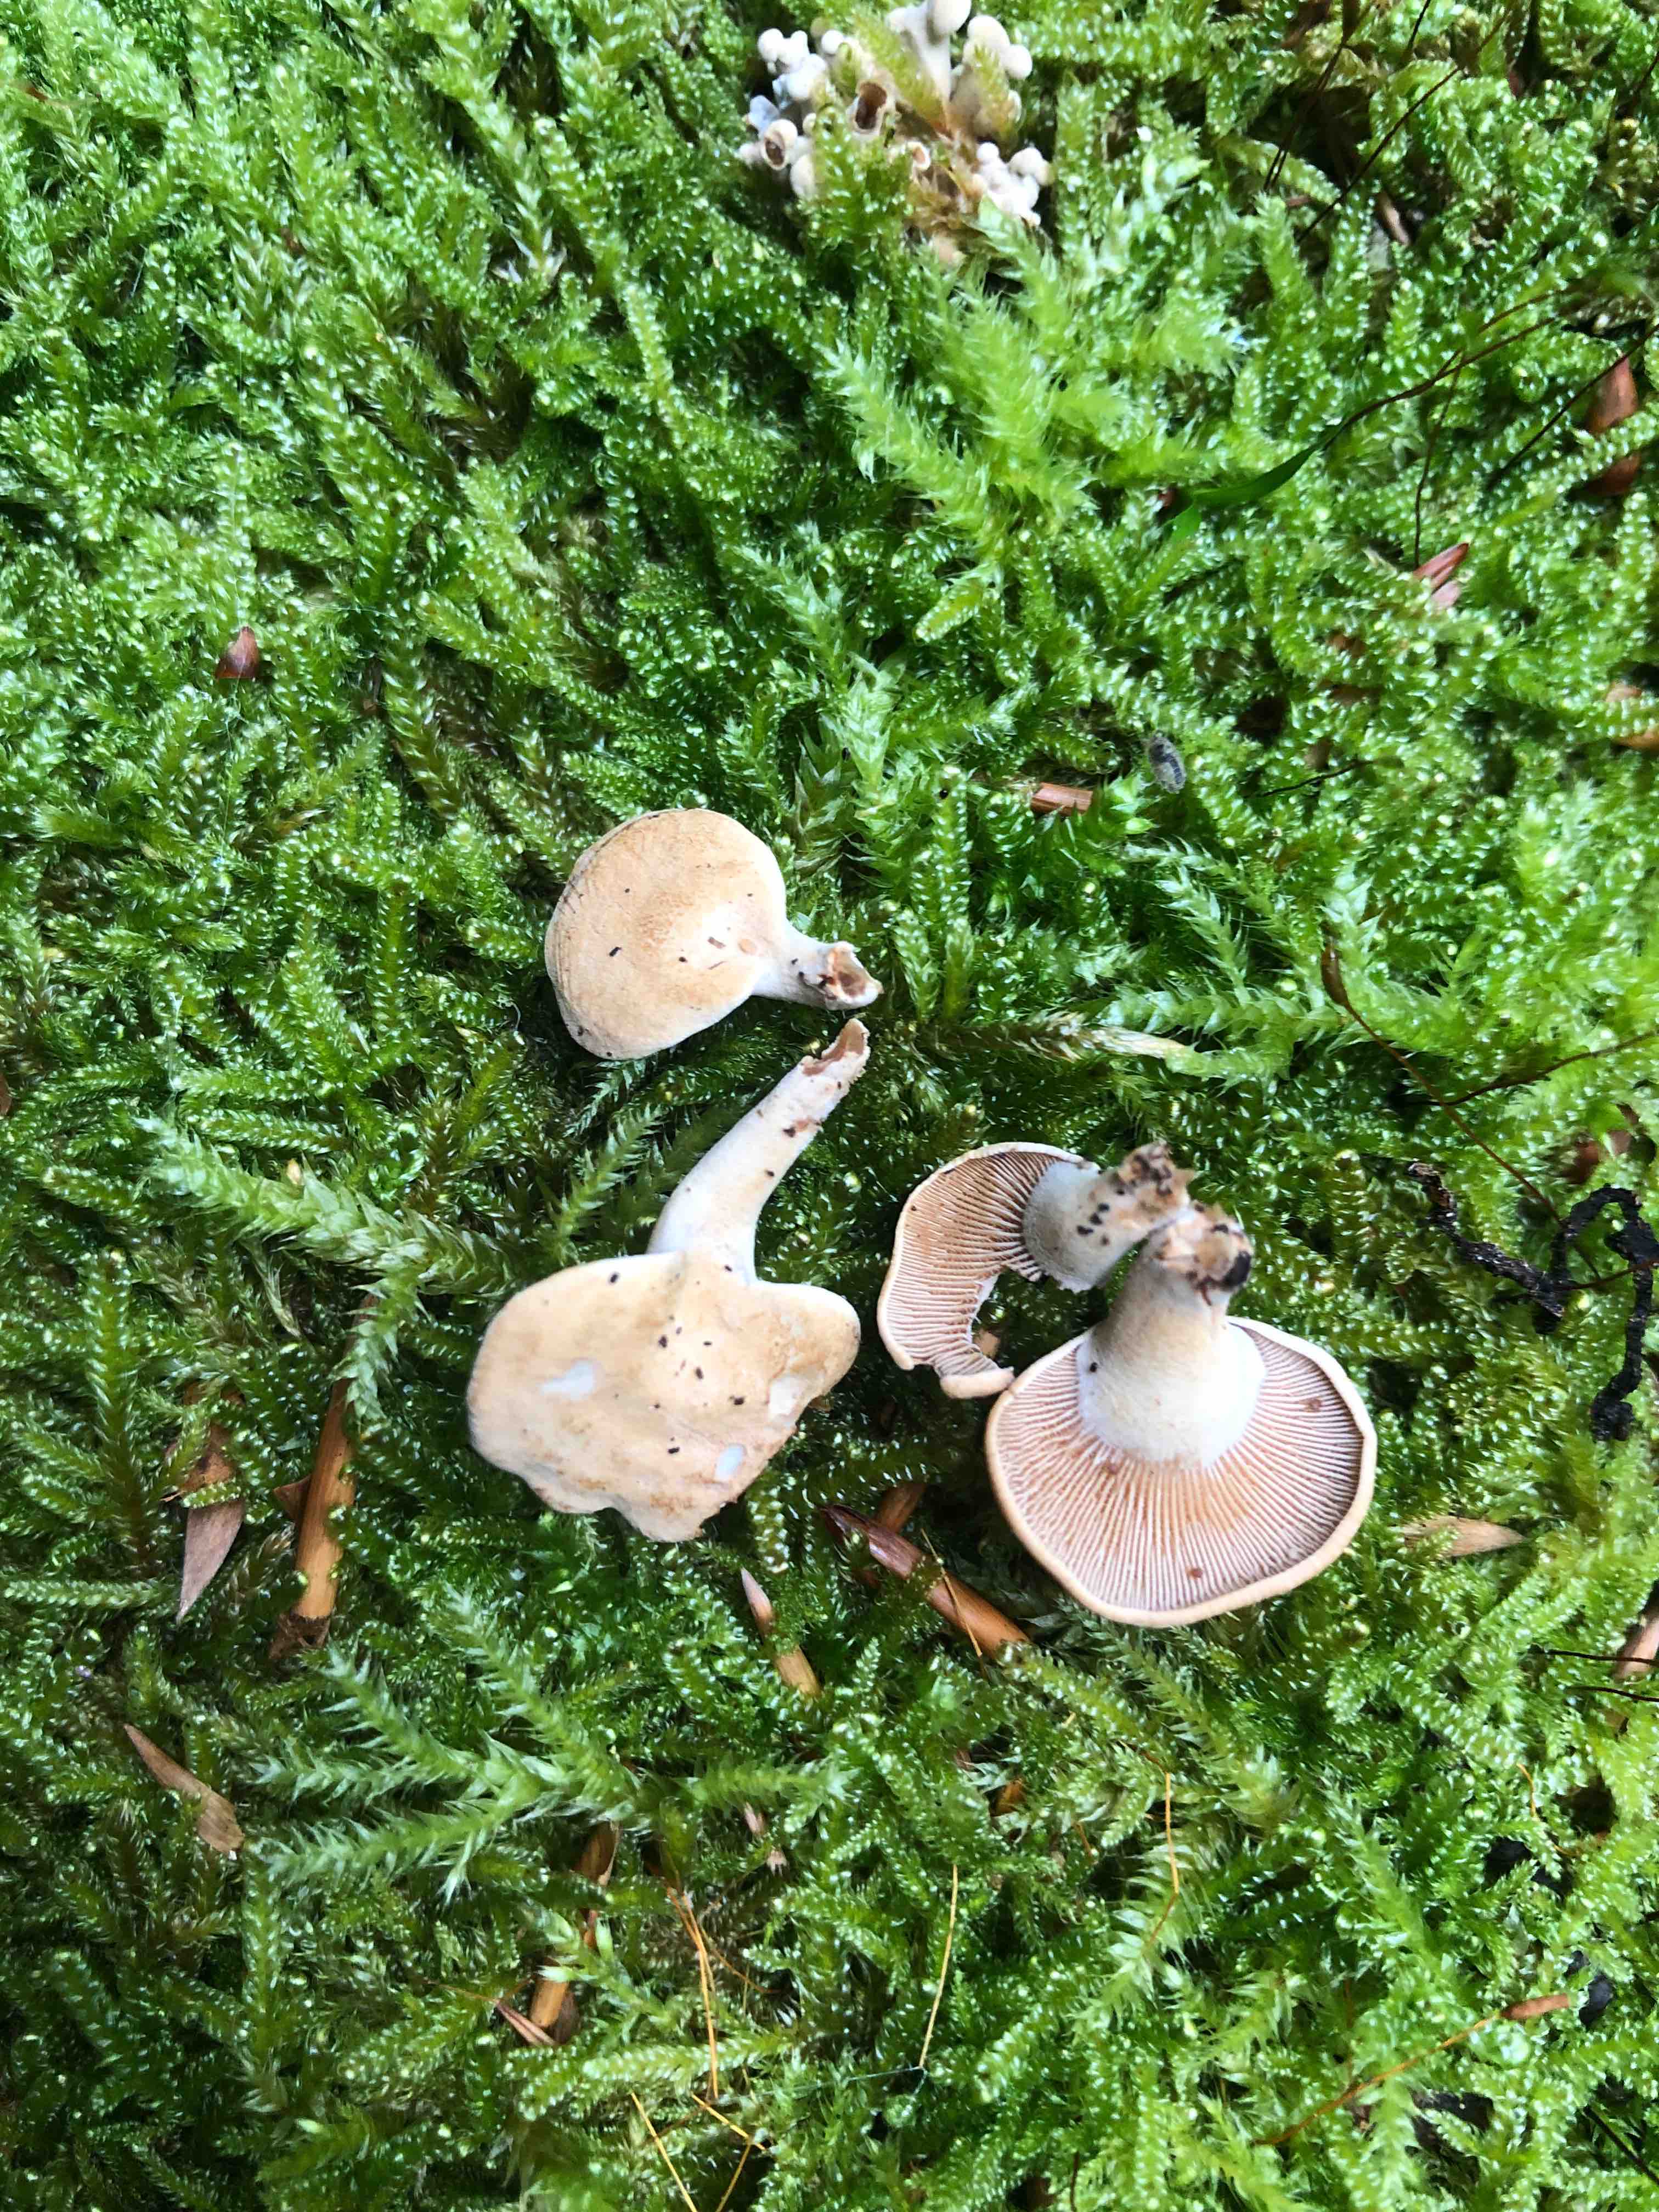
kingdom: Fungi
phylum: Basidiomycota
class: Agaricomycetes
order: Agaricales
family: Mycenaceae
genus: Panellus
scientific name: Panellus stipticus
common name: kliddet epaulethat
